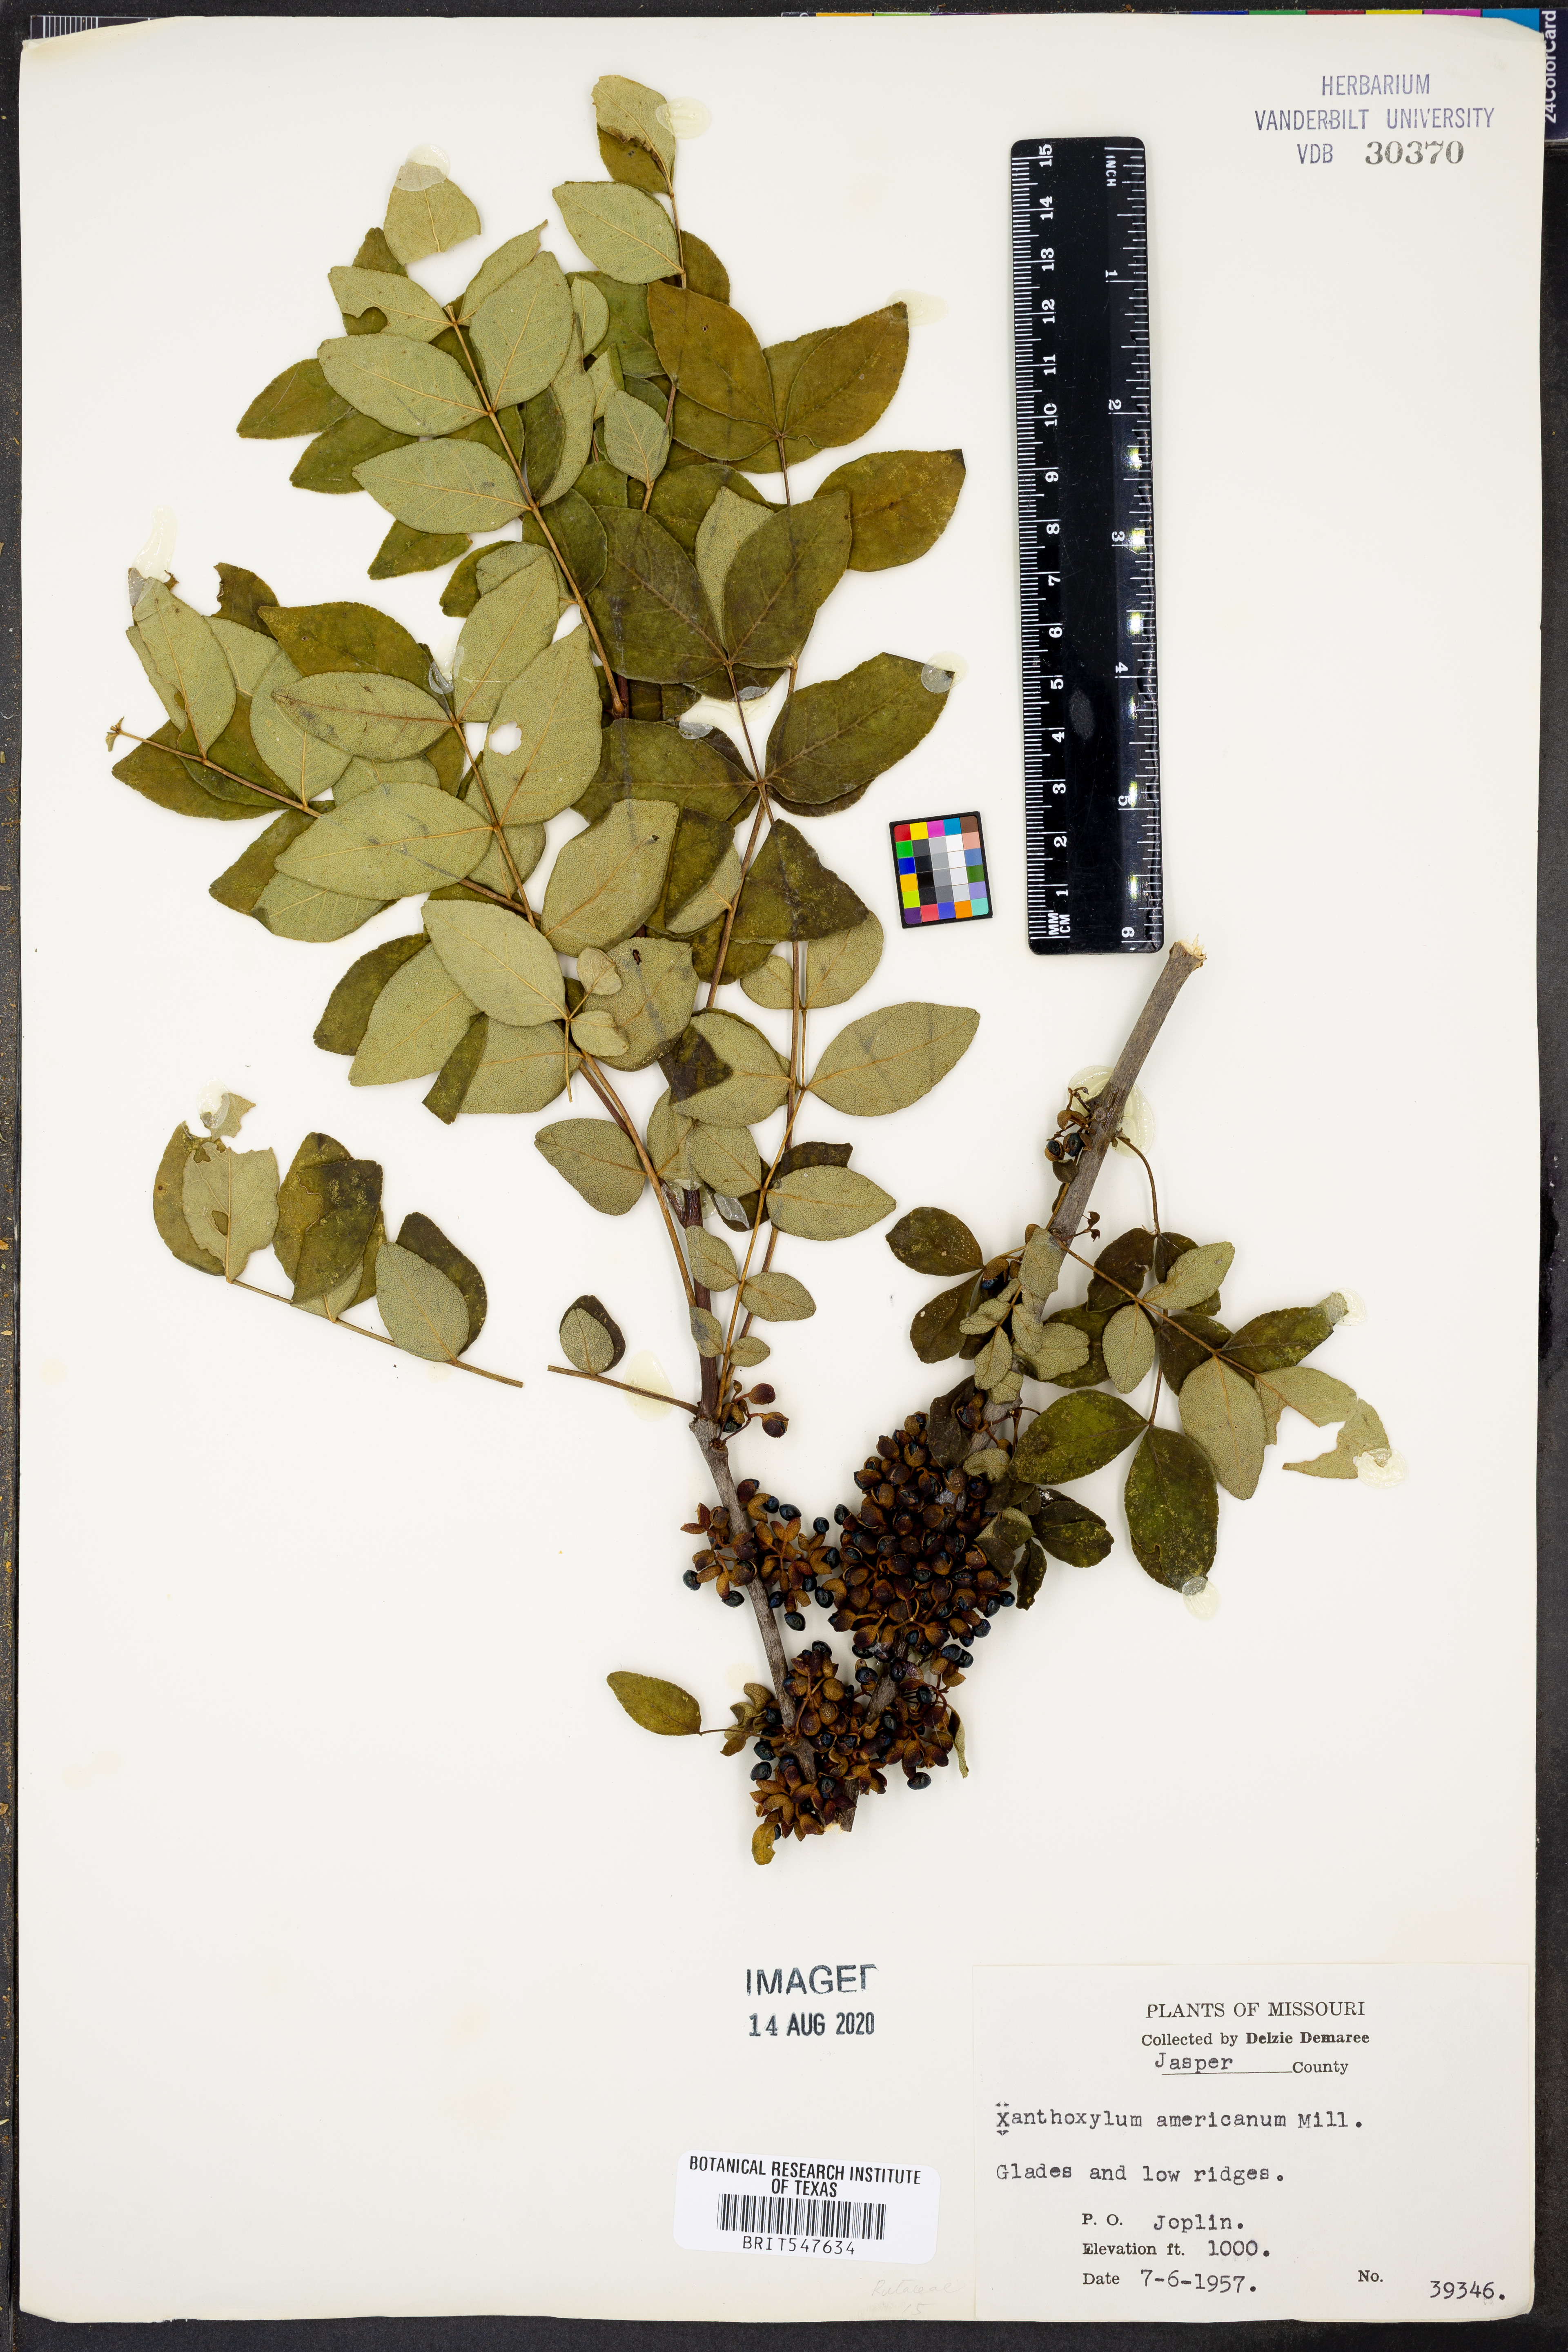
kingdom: Plantae
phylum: Tracheophyta
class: Magnoliopsida
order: Sapindales
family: Rutaceae
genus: Zanthoxylum
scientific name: Zanthoxylum americanum
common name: Northern prickly-ash
